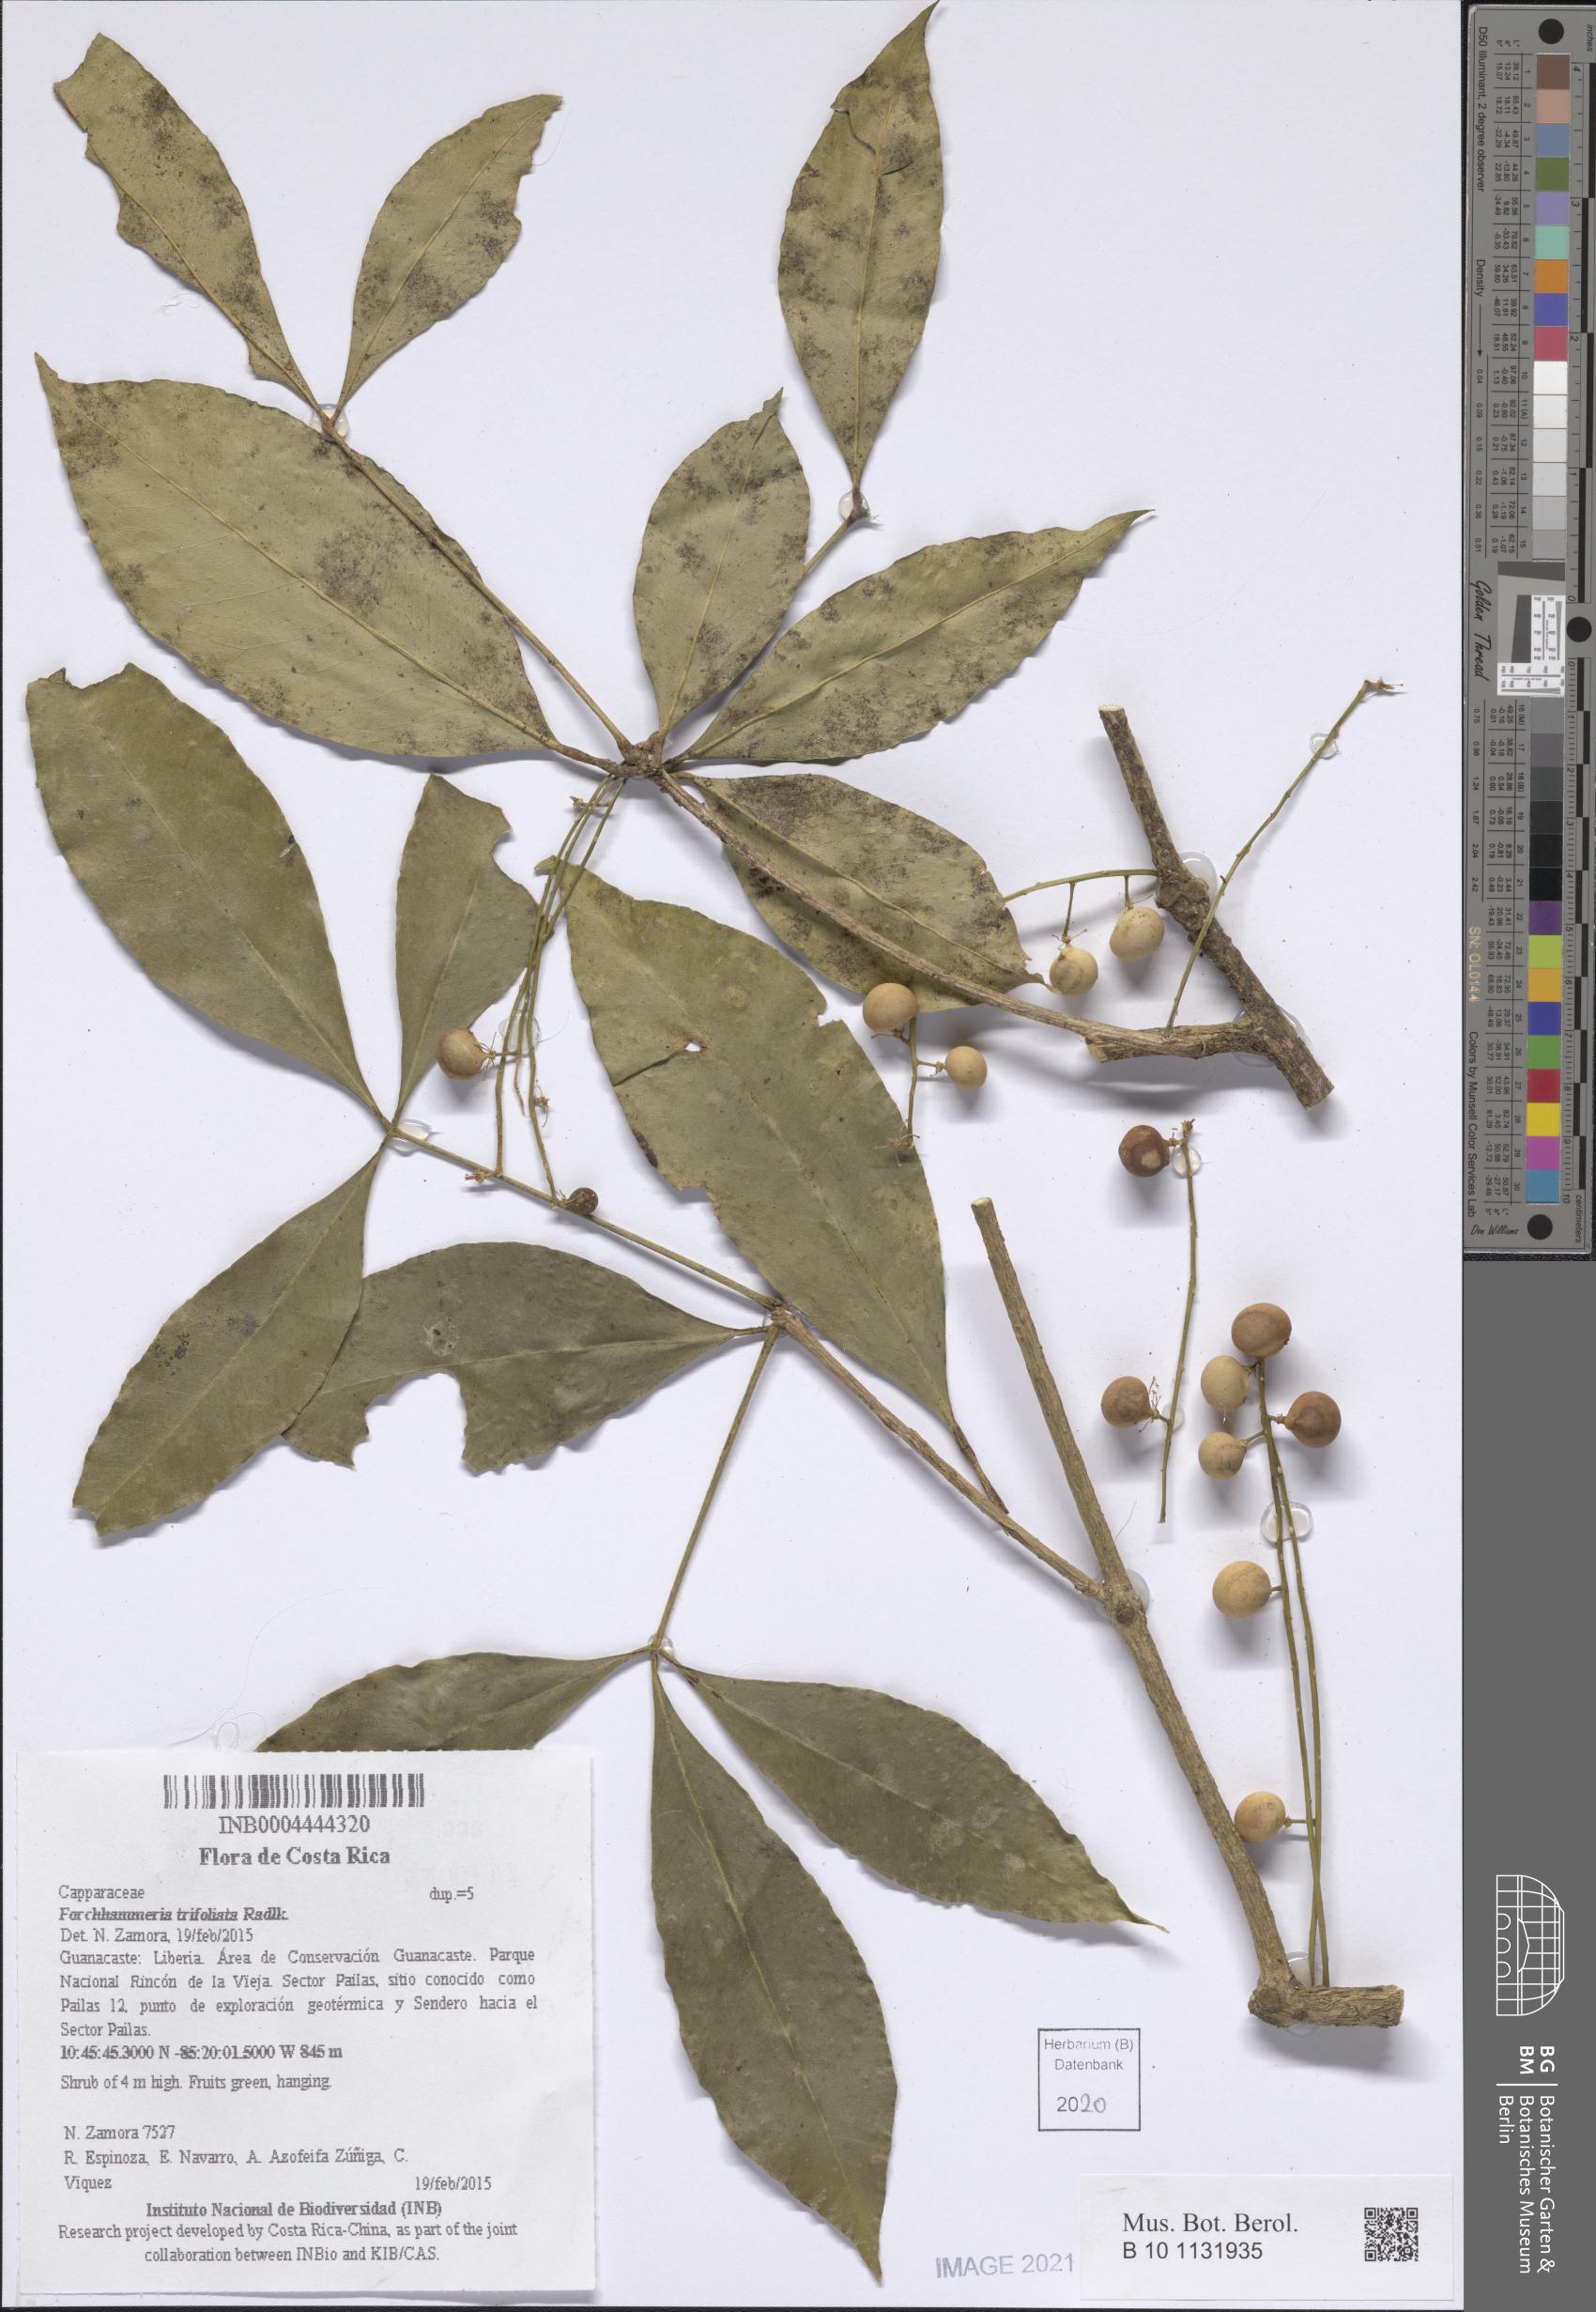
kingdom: Plantae
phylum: Tracheophyta
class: Magnoliopsida
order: Brassicales
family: Stixaceae
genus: Forchhammeria
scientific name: Forchhammeria trifoliata
